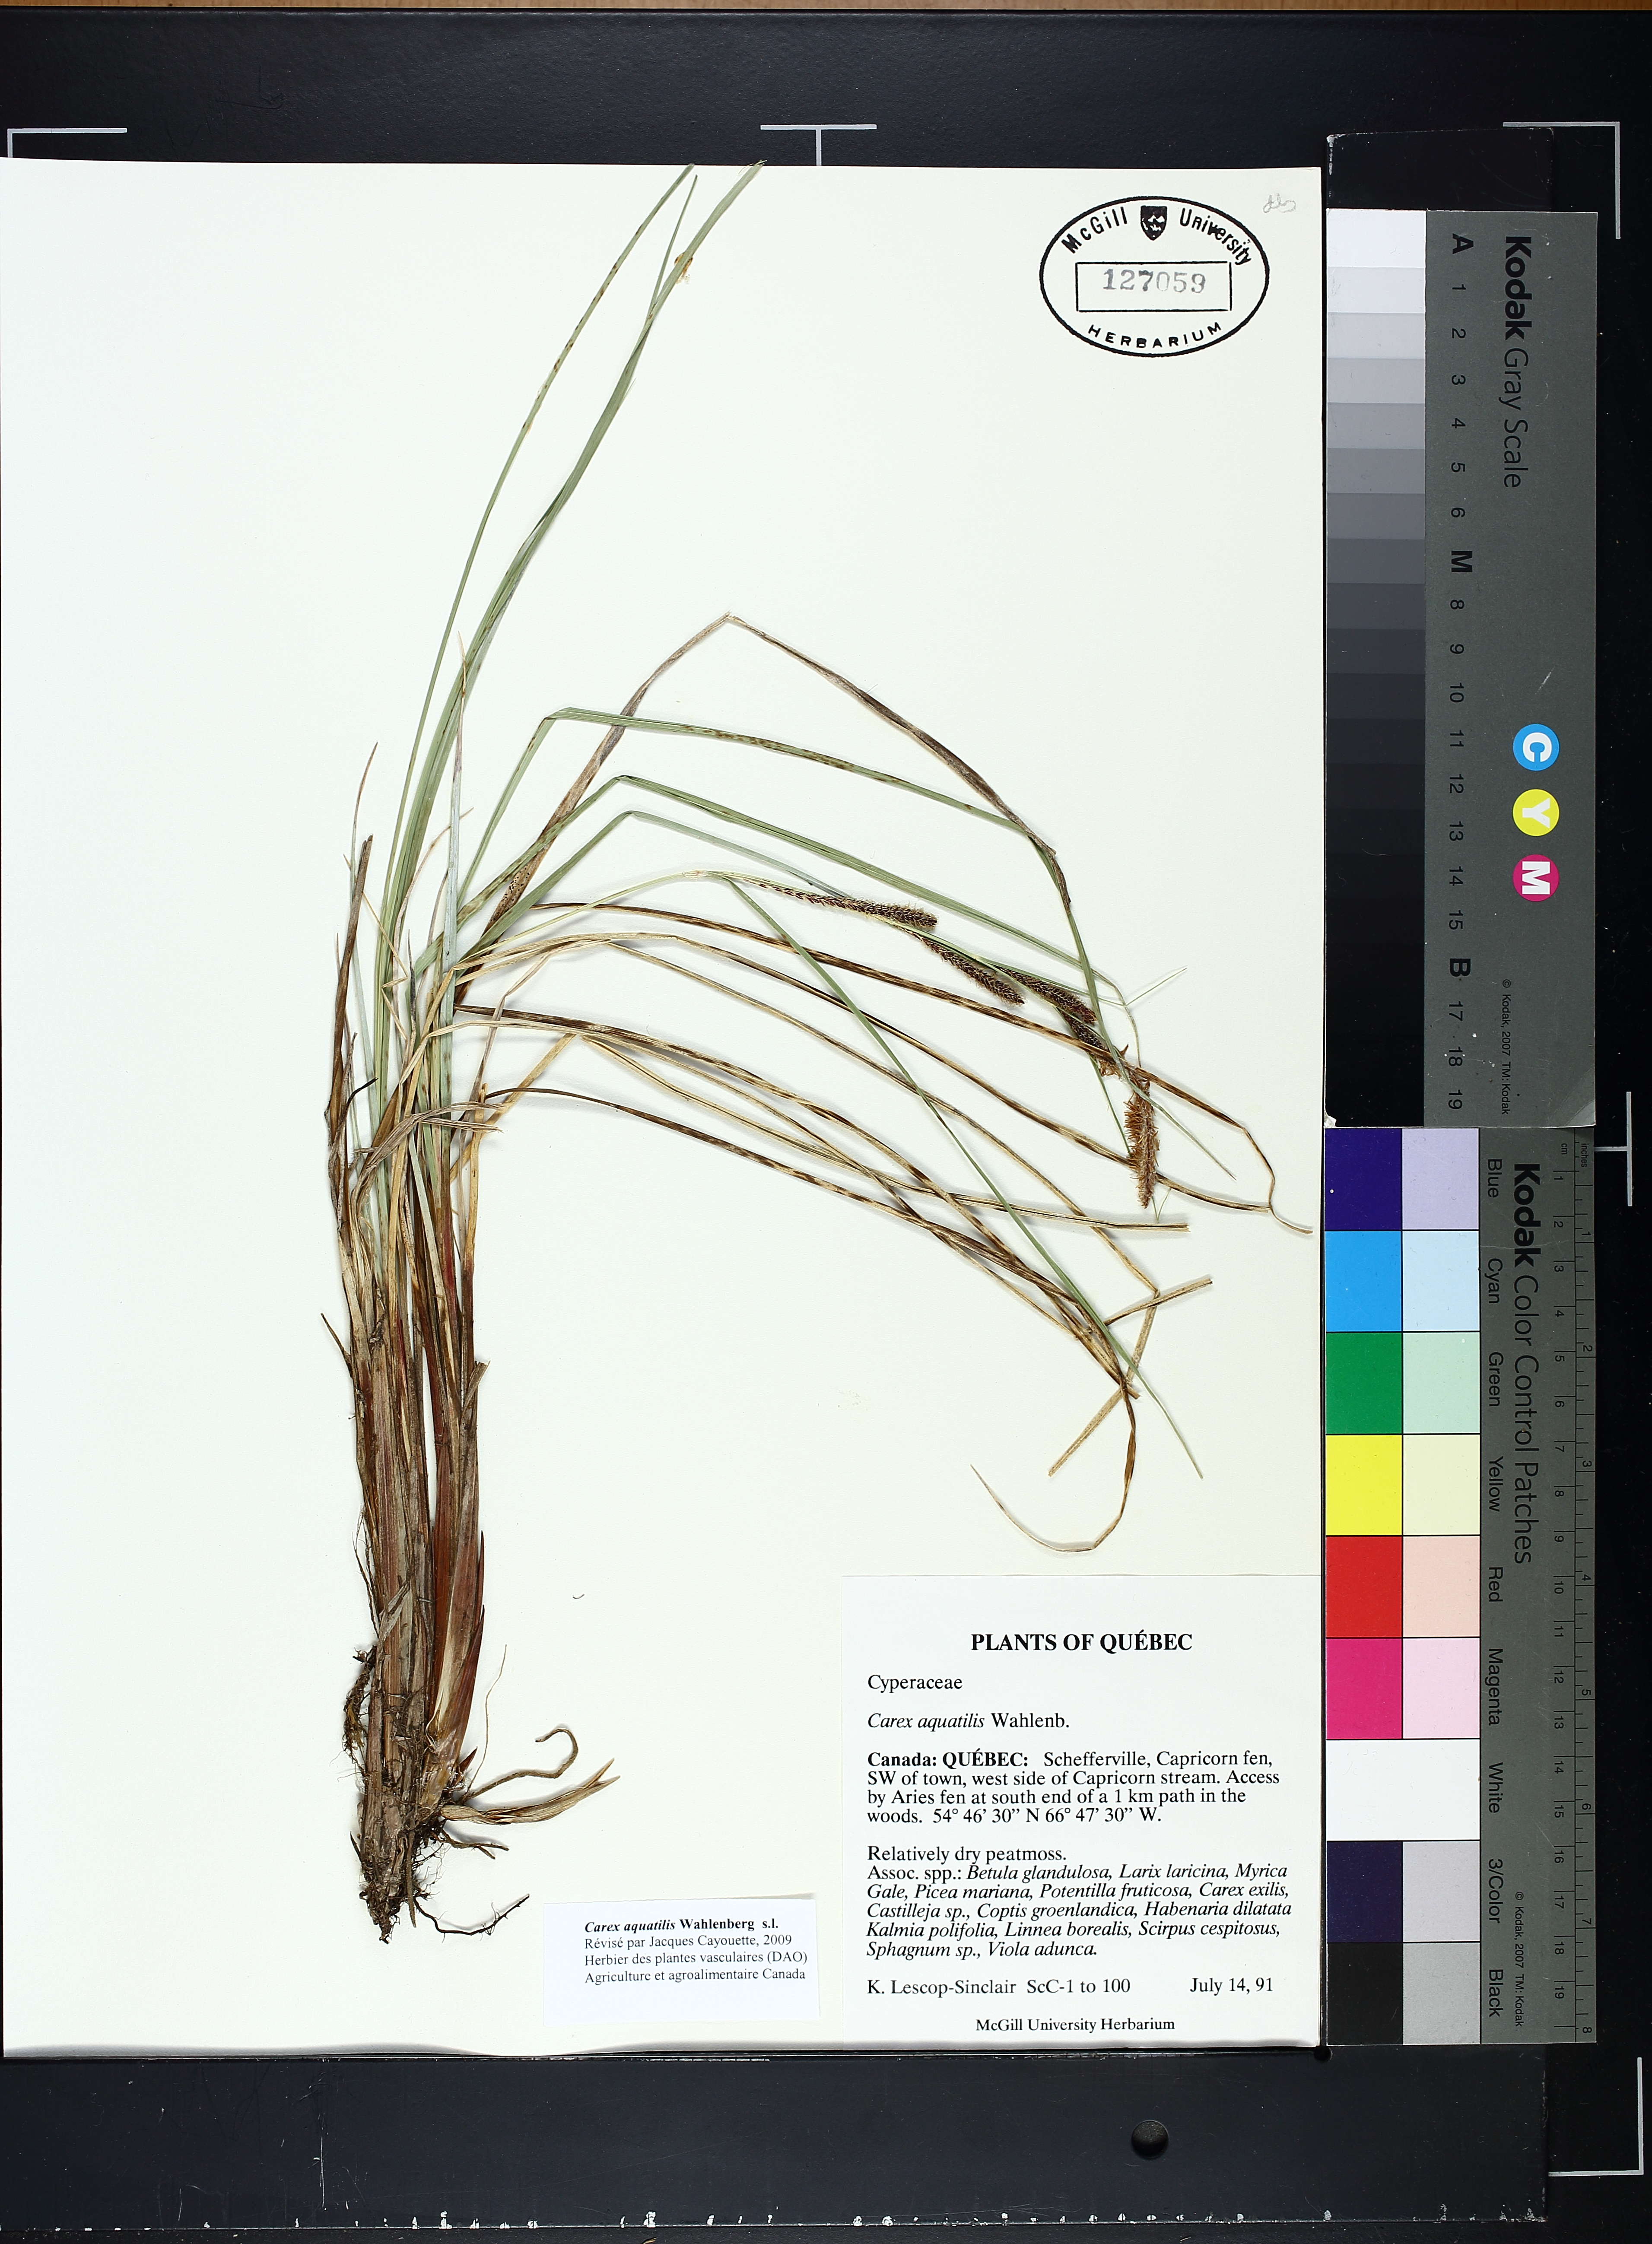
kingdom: Plantae
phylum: Tracheophyta
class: Liliopsida
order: Poales
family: Cyperaceae
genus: Carex
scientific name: Carex aquatilis
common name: Water sedge
